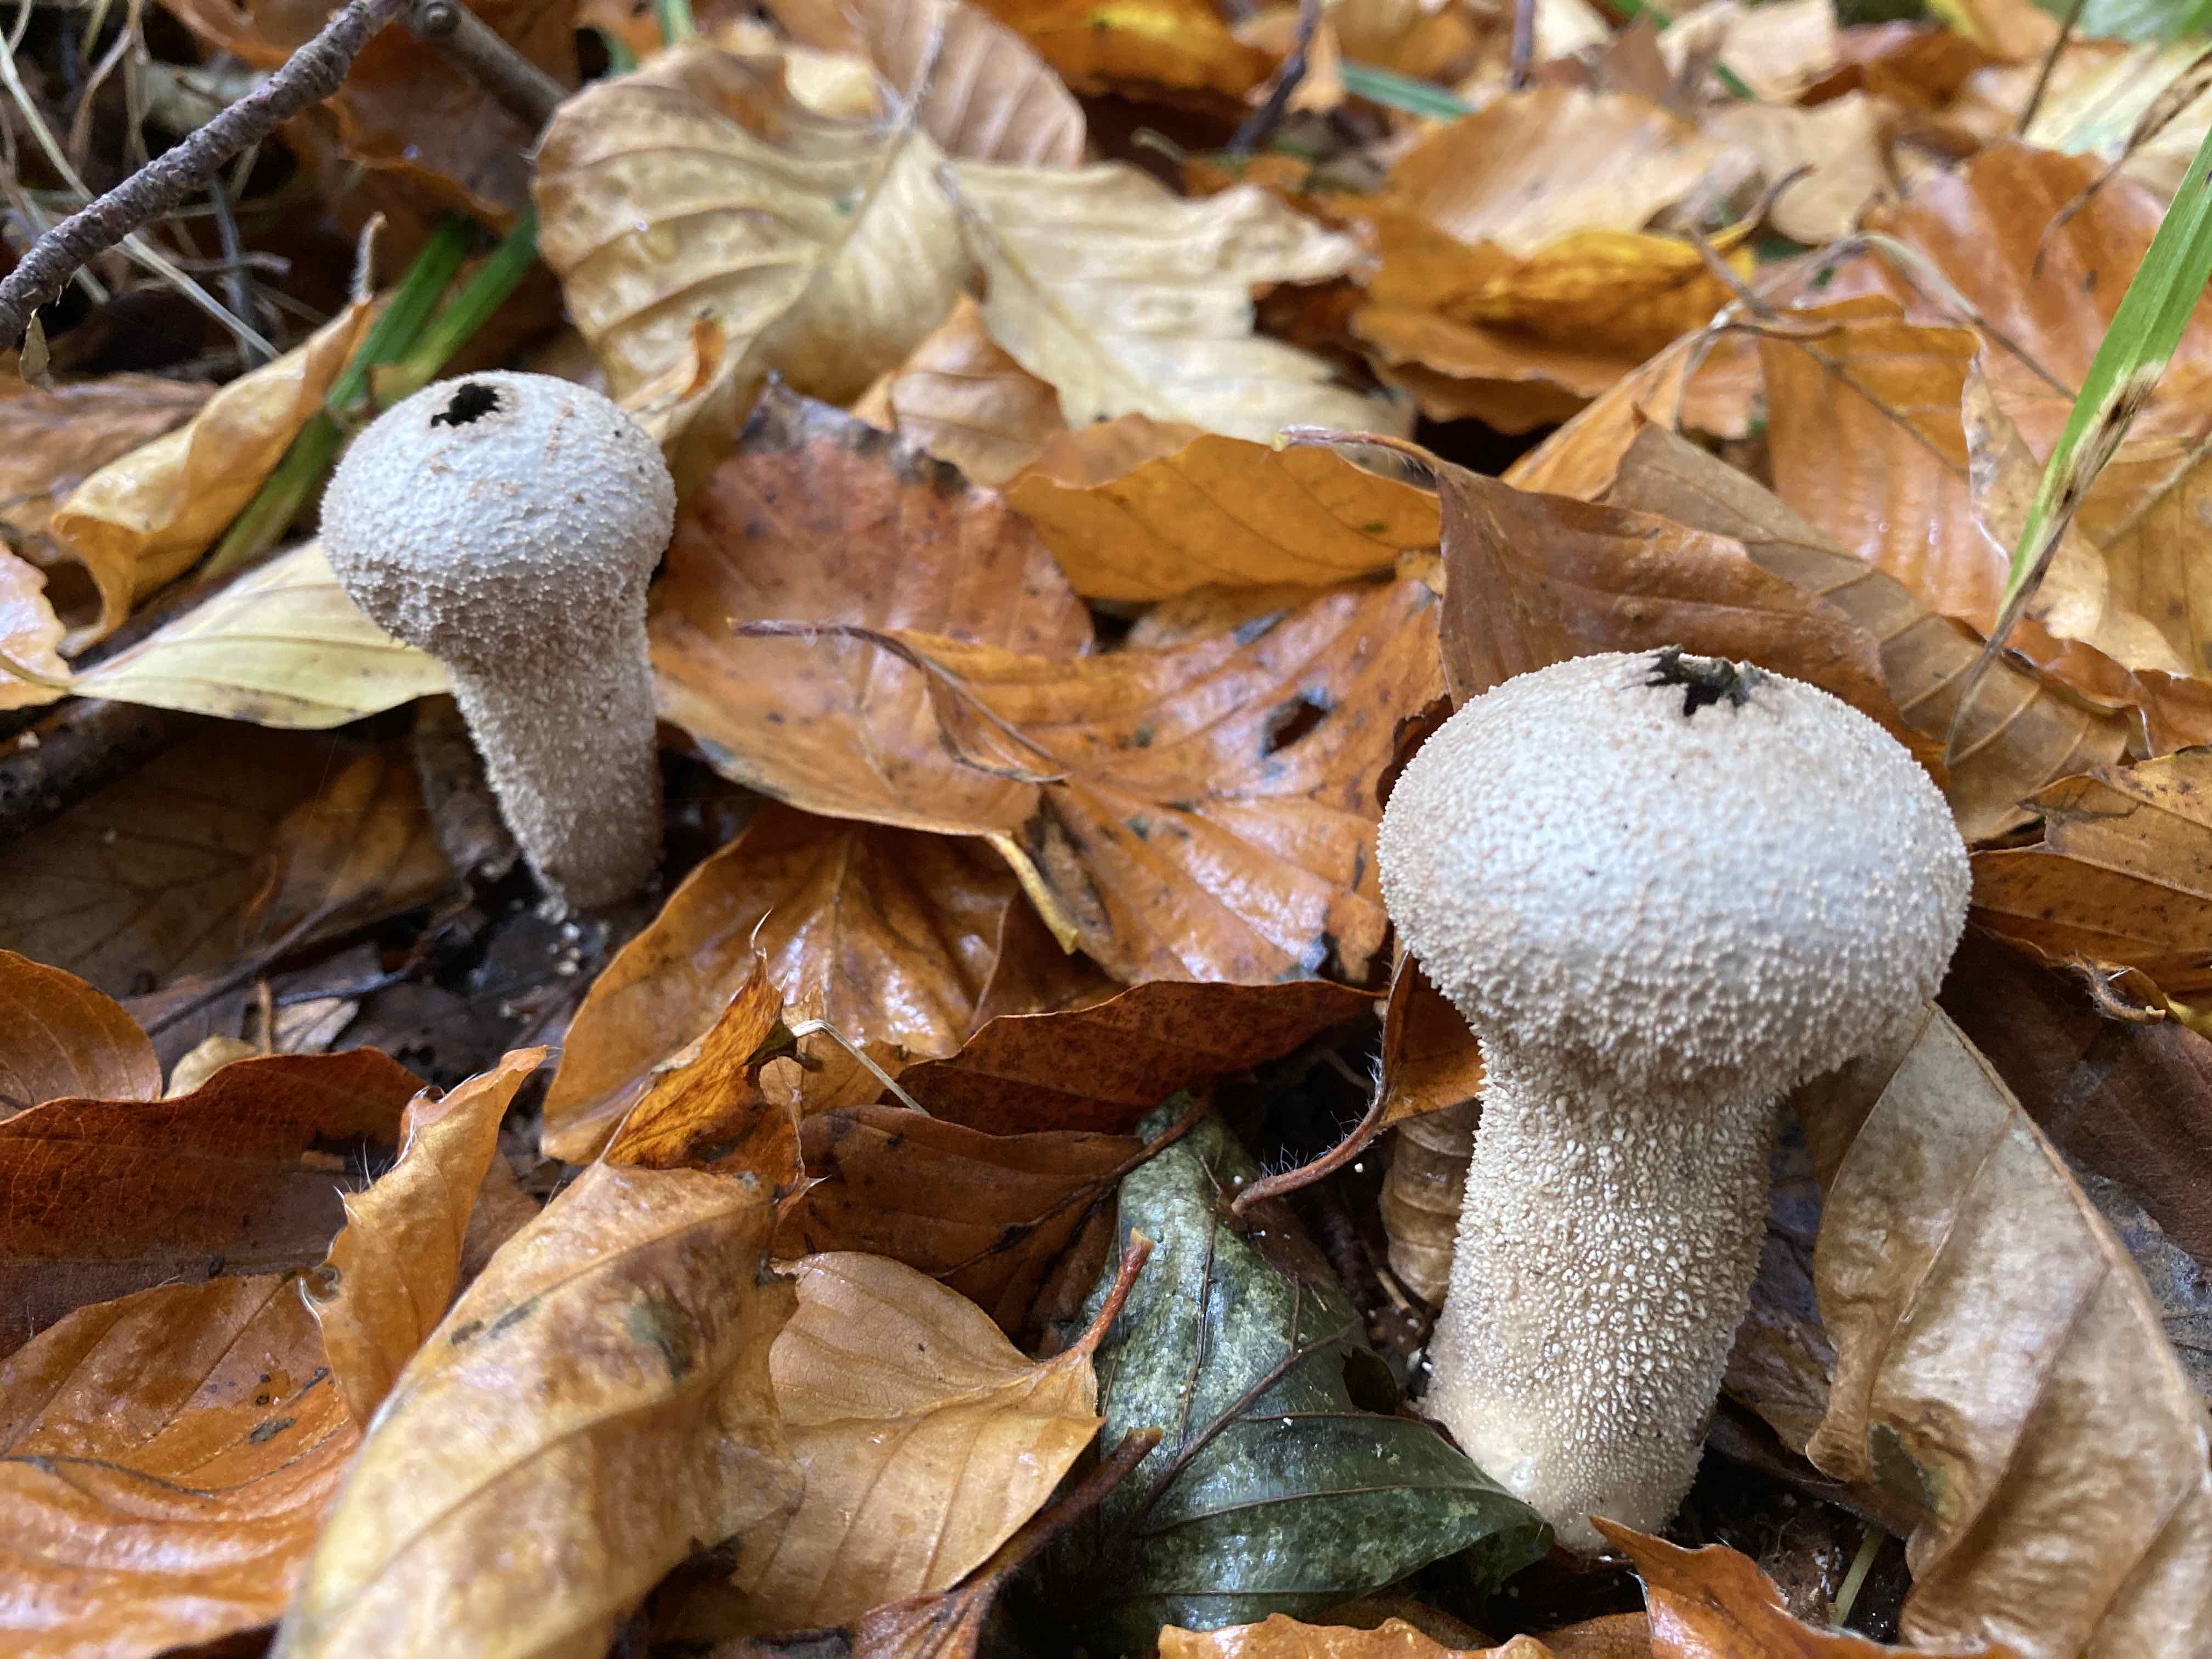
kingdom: Fungi
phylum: Basidiomycota
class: Agaricomycetes
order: Agaricales
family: Lycoperdaceae
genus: Lycoperdon
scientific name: Lycoperdon perlatum
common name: krystal-støvbold
